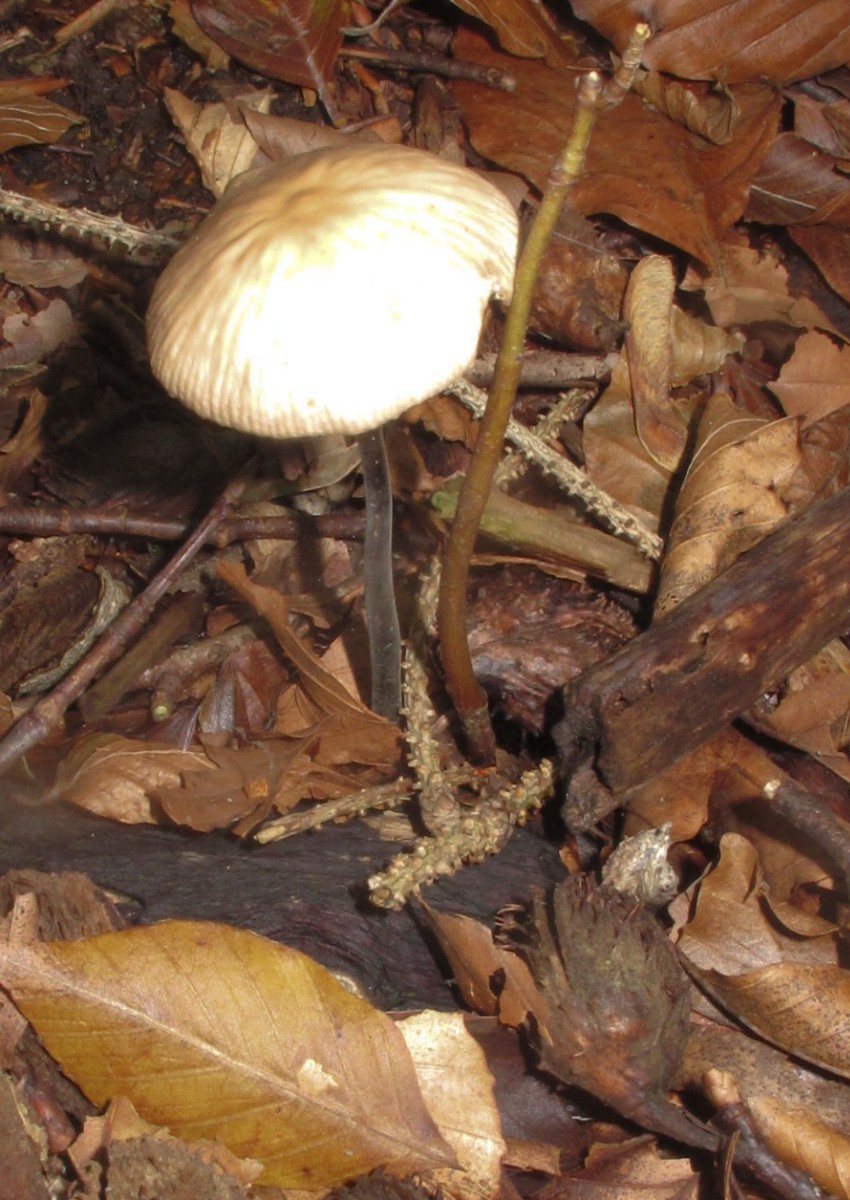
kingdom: Fungi
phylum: Basidiomycota
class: Agaricomycetes
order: Agaricales
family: Omphalotaceae
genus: Mycetinis
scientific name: Mycetinis alliaceus
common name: stor løghat
